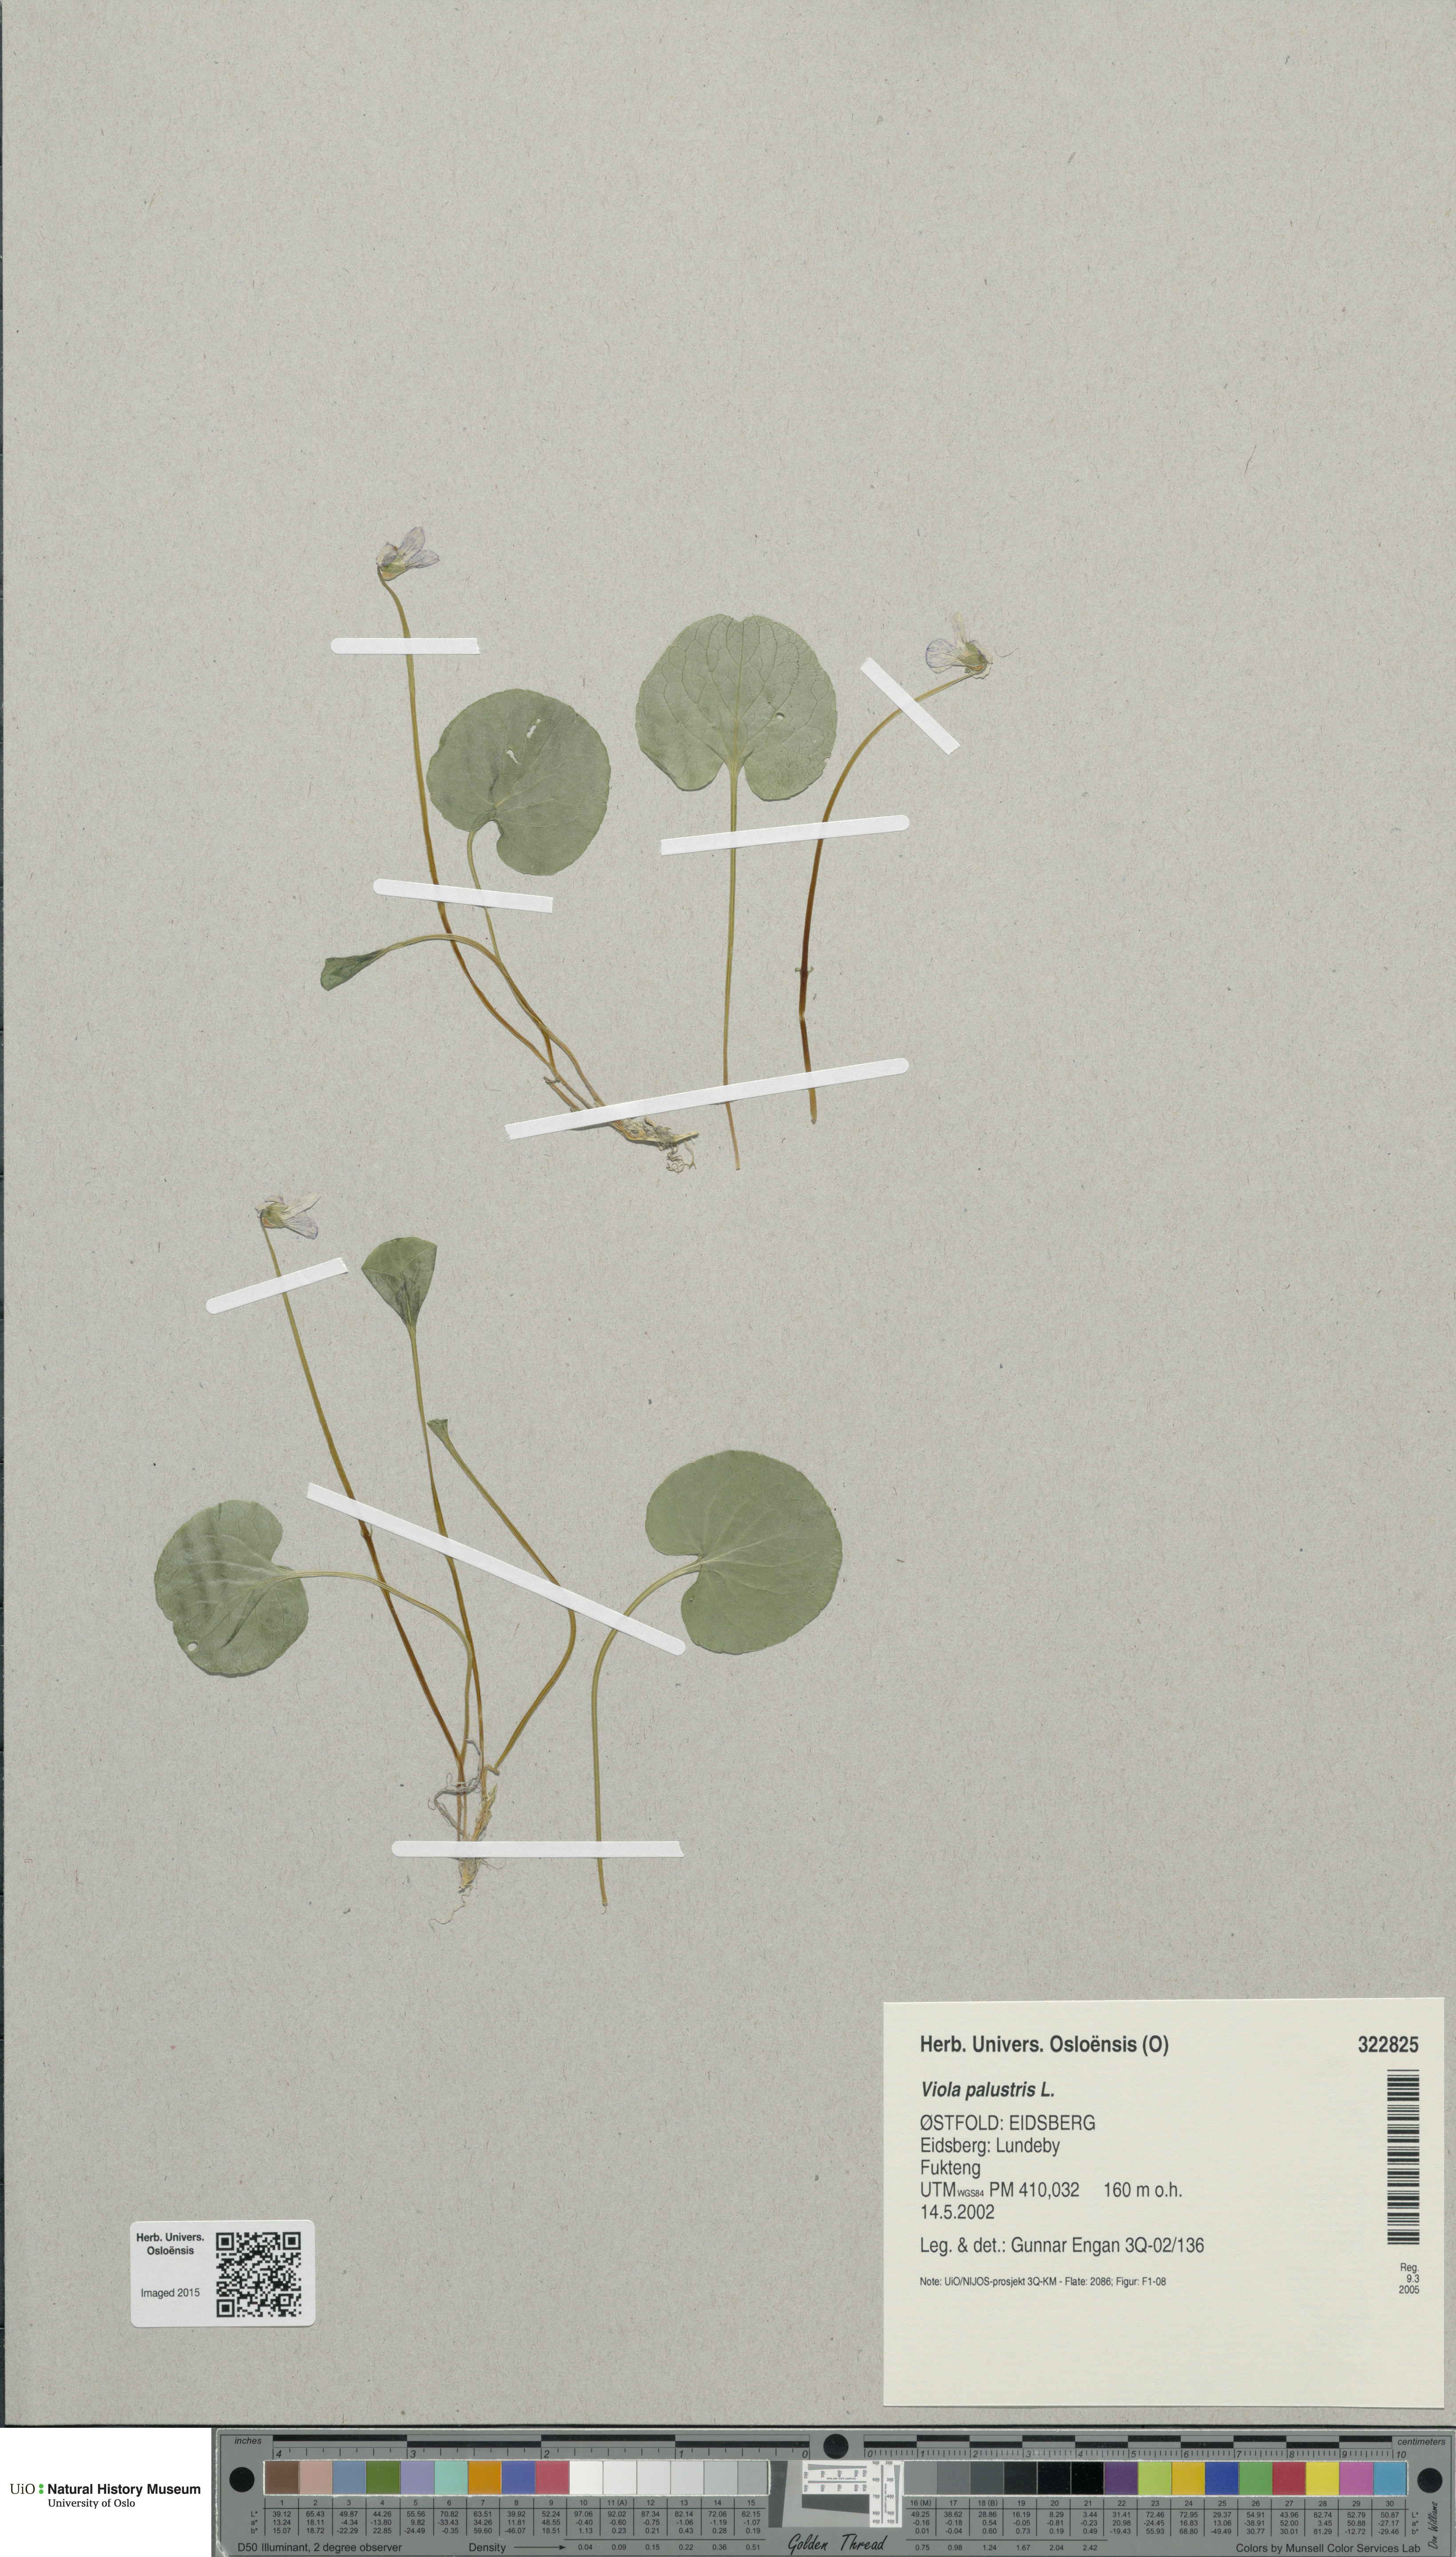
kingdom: Plantae
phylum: Tracheophyta
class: Magnoliopsida
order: Malpighiales
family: Violaceae
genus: Viola
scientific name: Viola palustris
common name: Marsh violet
